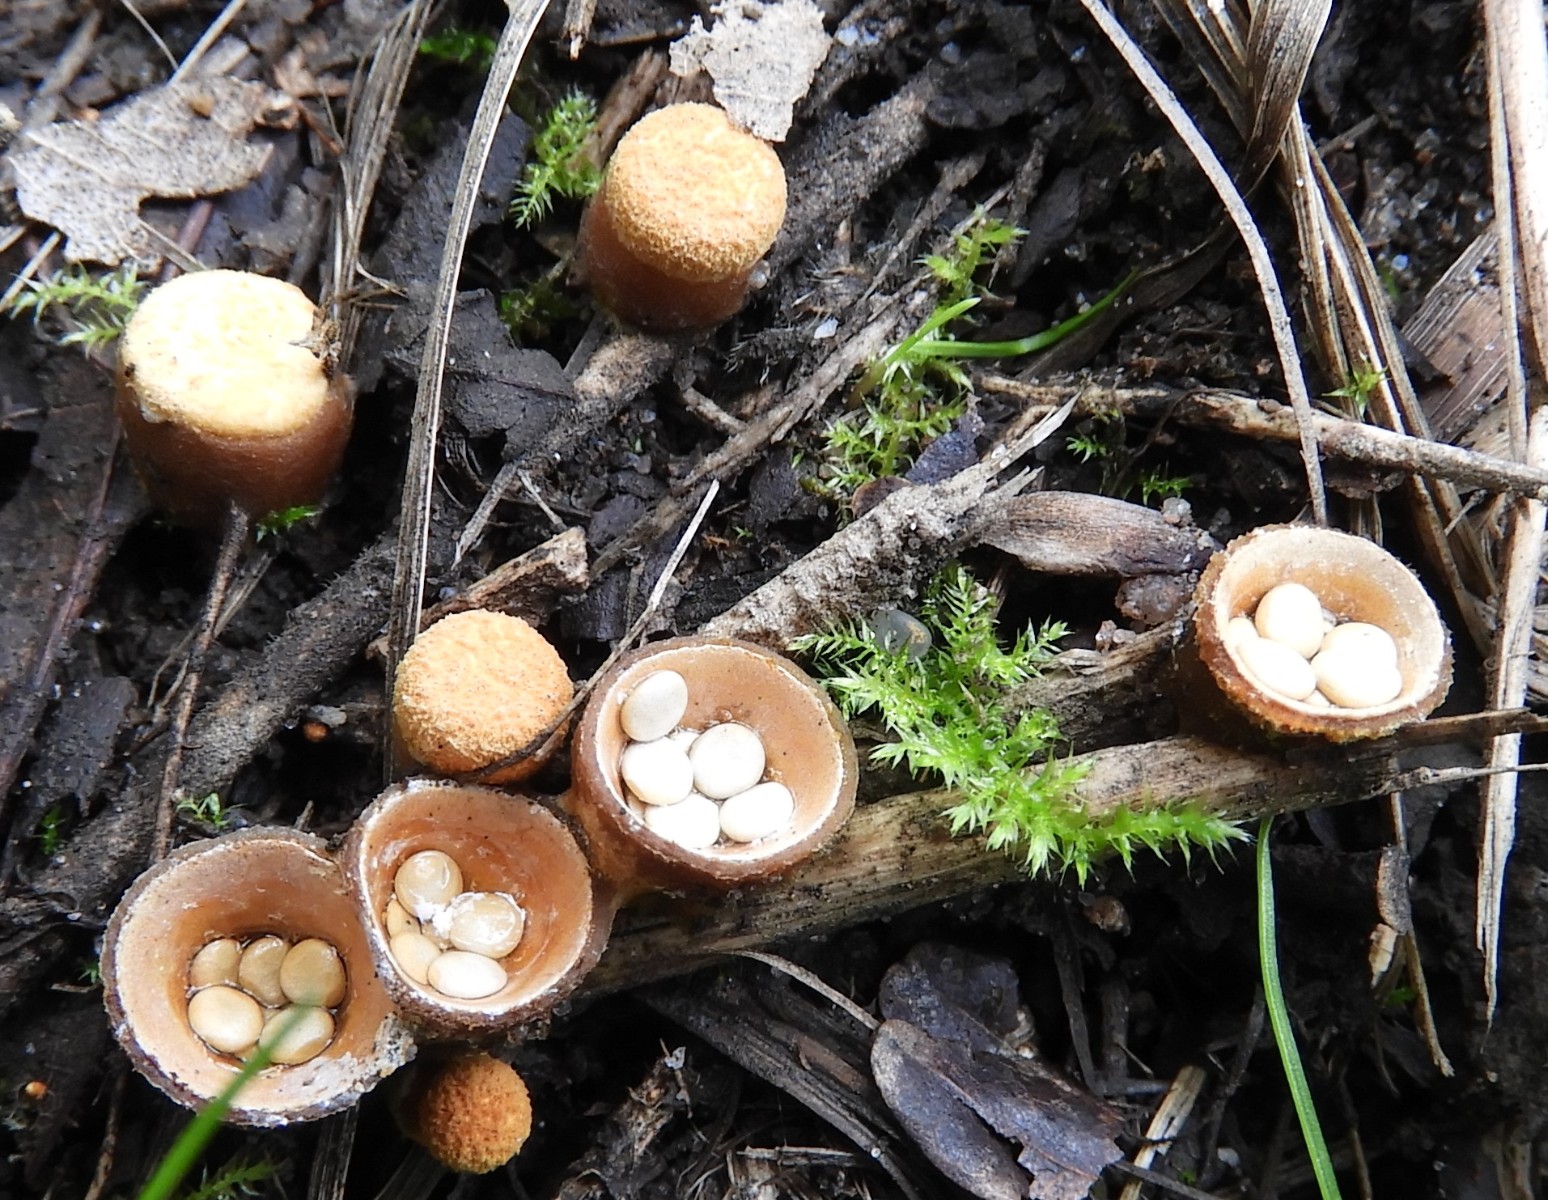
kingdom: Fungi
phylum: Basidiomycota
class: Agaricomycetes
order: Agaricales
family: Nidulariaceae
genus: Crucibulum
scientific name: Crucibulum crucibuliforme
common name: krukkesvamp
